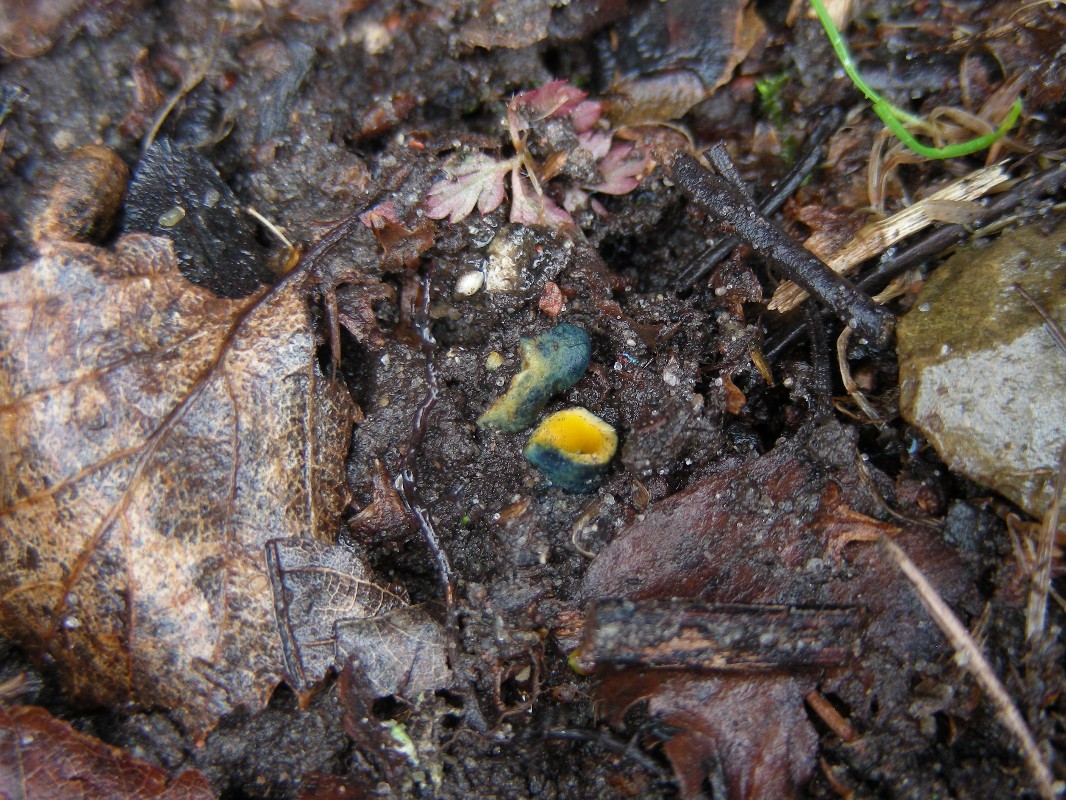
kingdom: Fungi
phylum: Ascomycota
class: Pezizomycetes
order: Pezizales
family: Caloscyphaceae
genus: Caloscypha
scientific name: Caloscypha fulgens
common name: jadebæger
